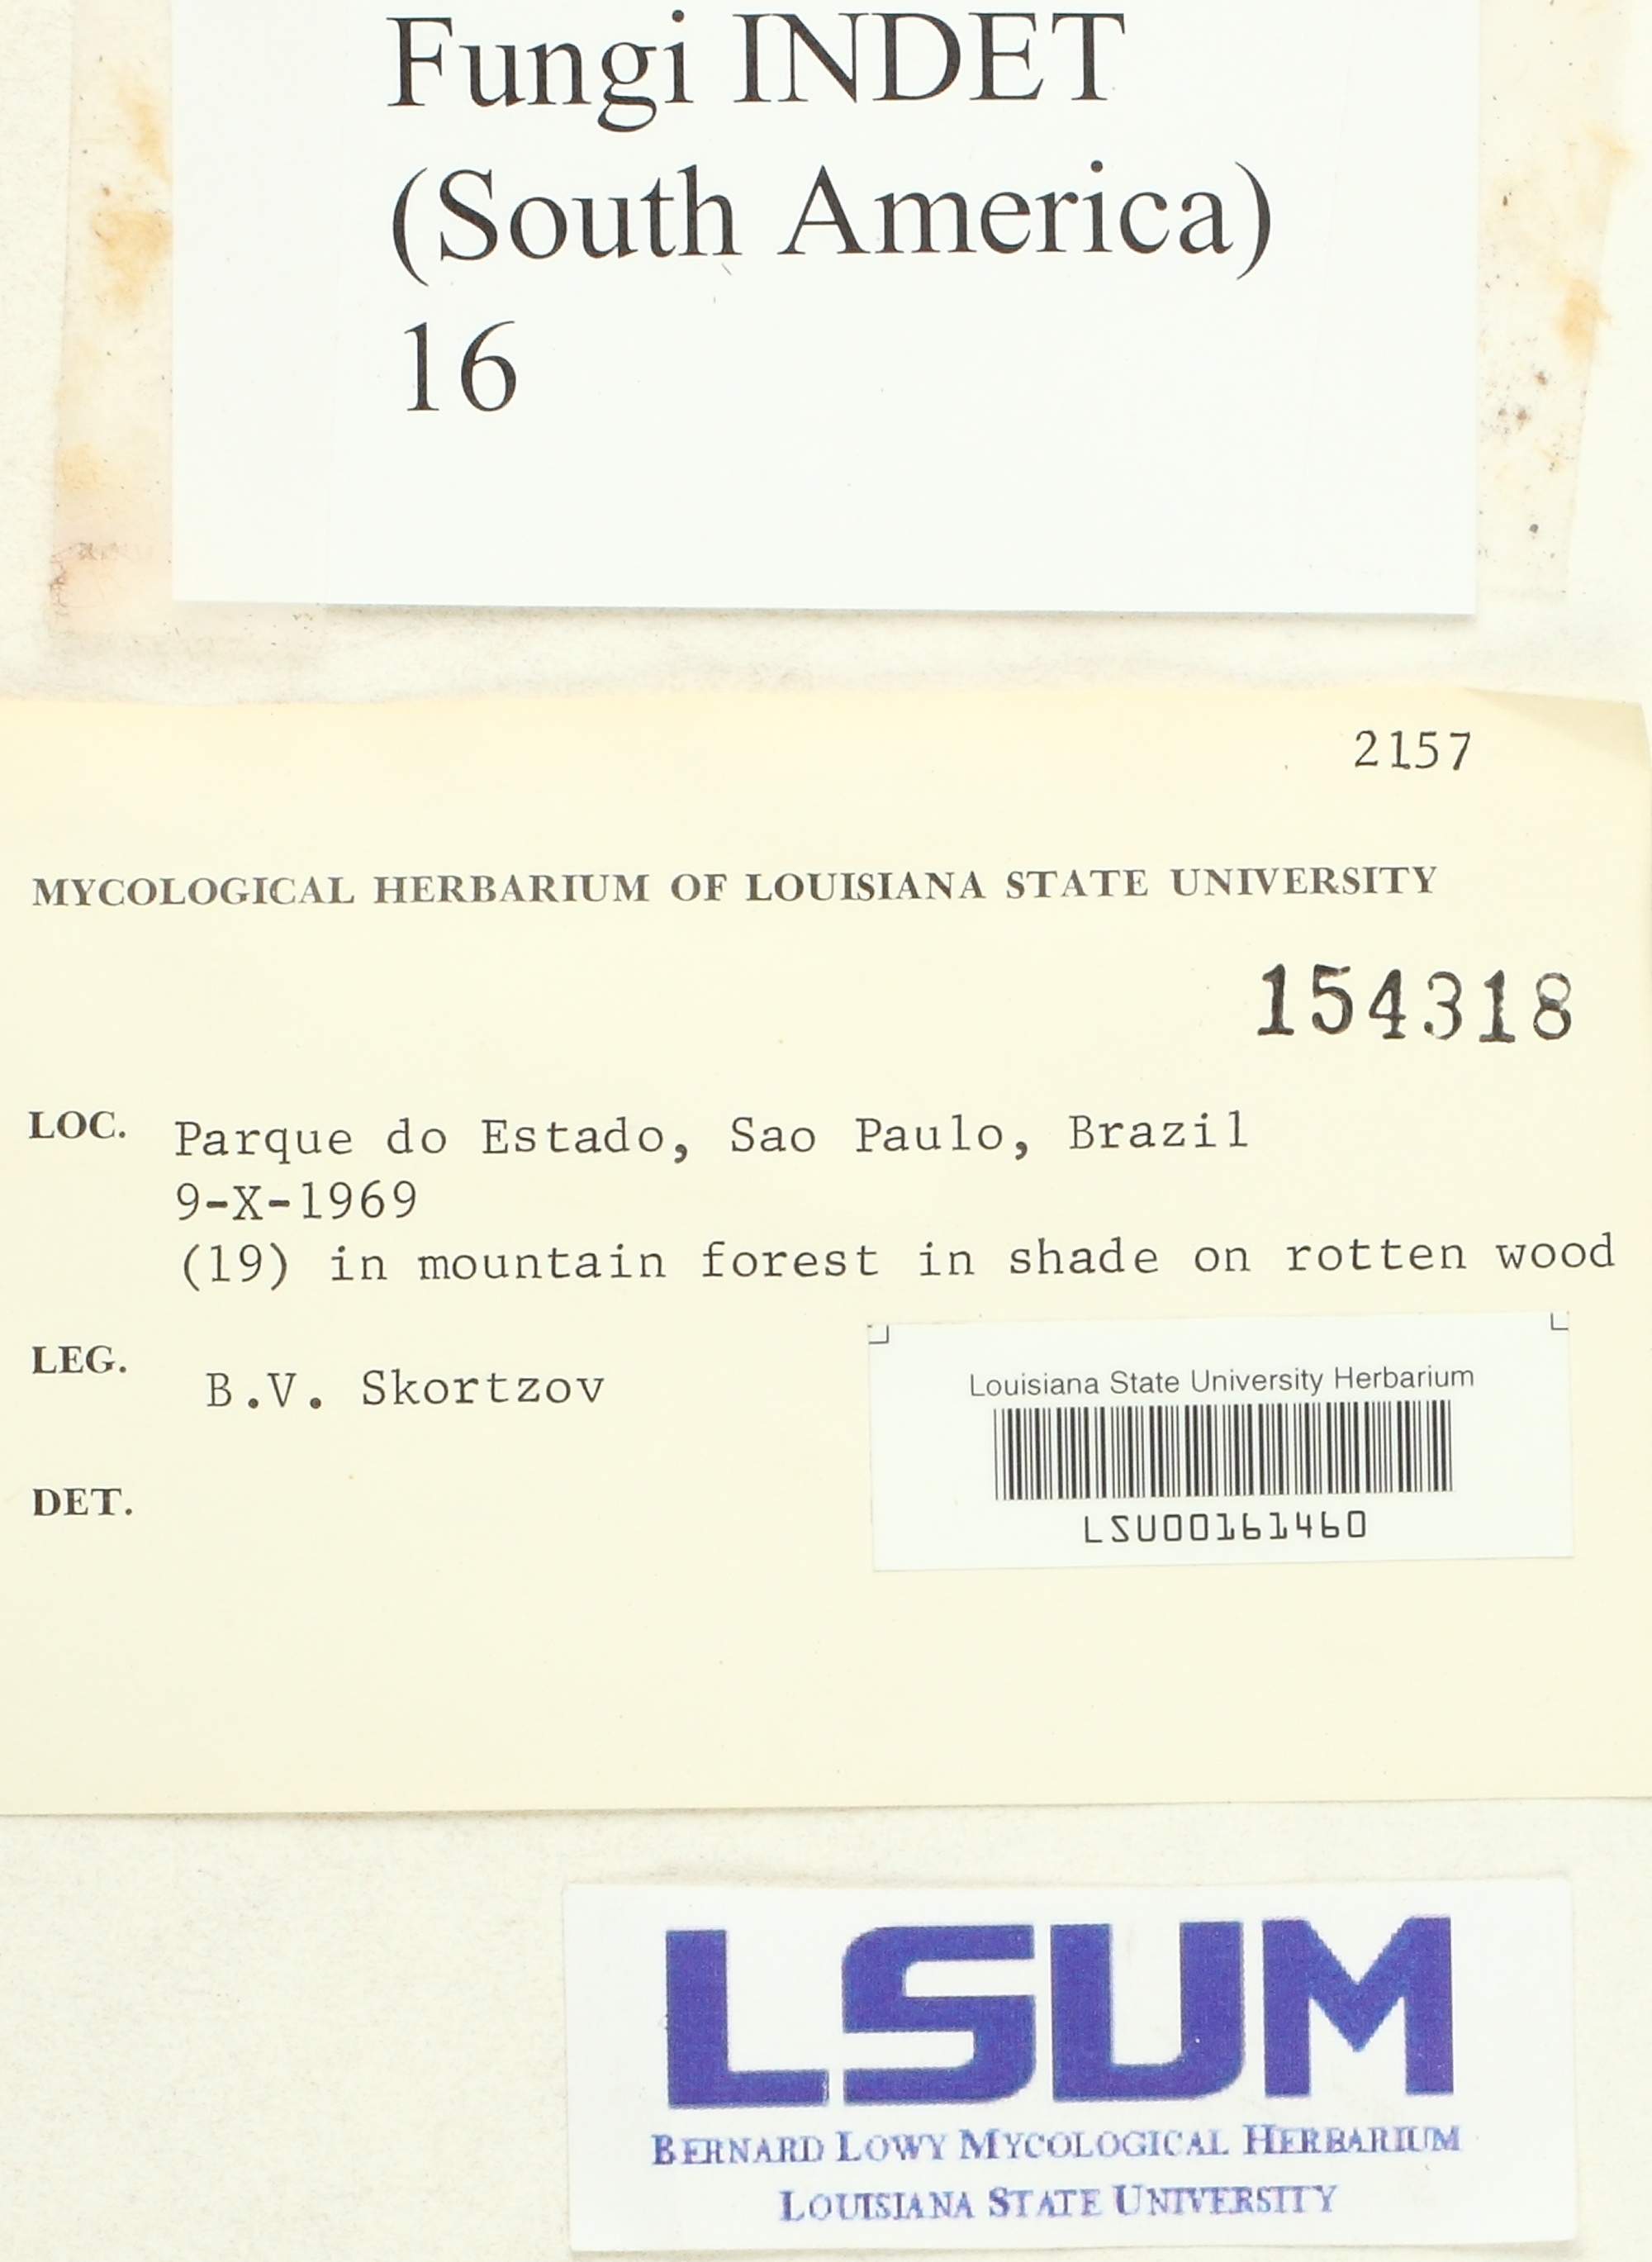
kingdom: Fungi
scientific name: Fungi
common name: Fungi
